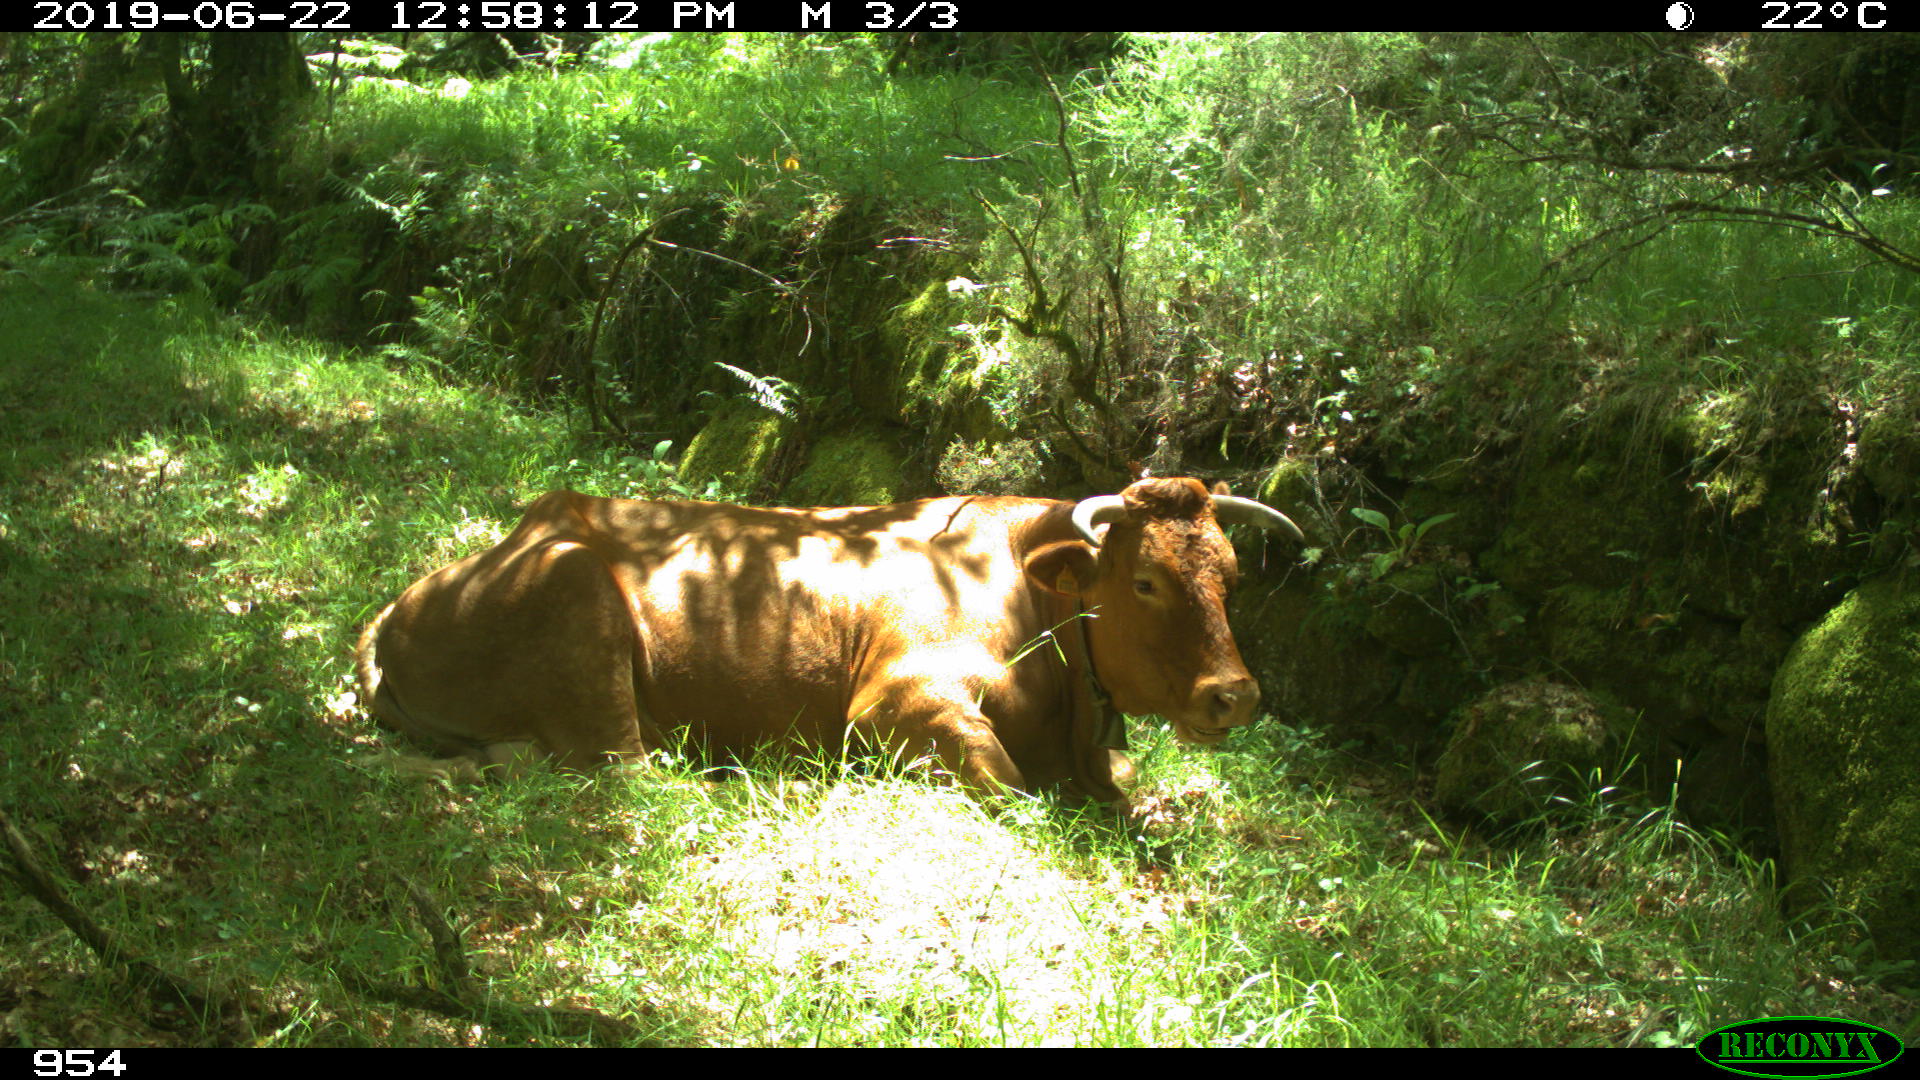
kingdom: Animalia
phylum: Chordata
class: Mammalia
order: Artiodactyla
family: Bovidae
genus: Bos
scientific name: Bos taurus
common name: Domesticated cattle
